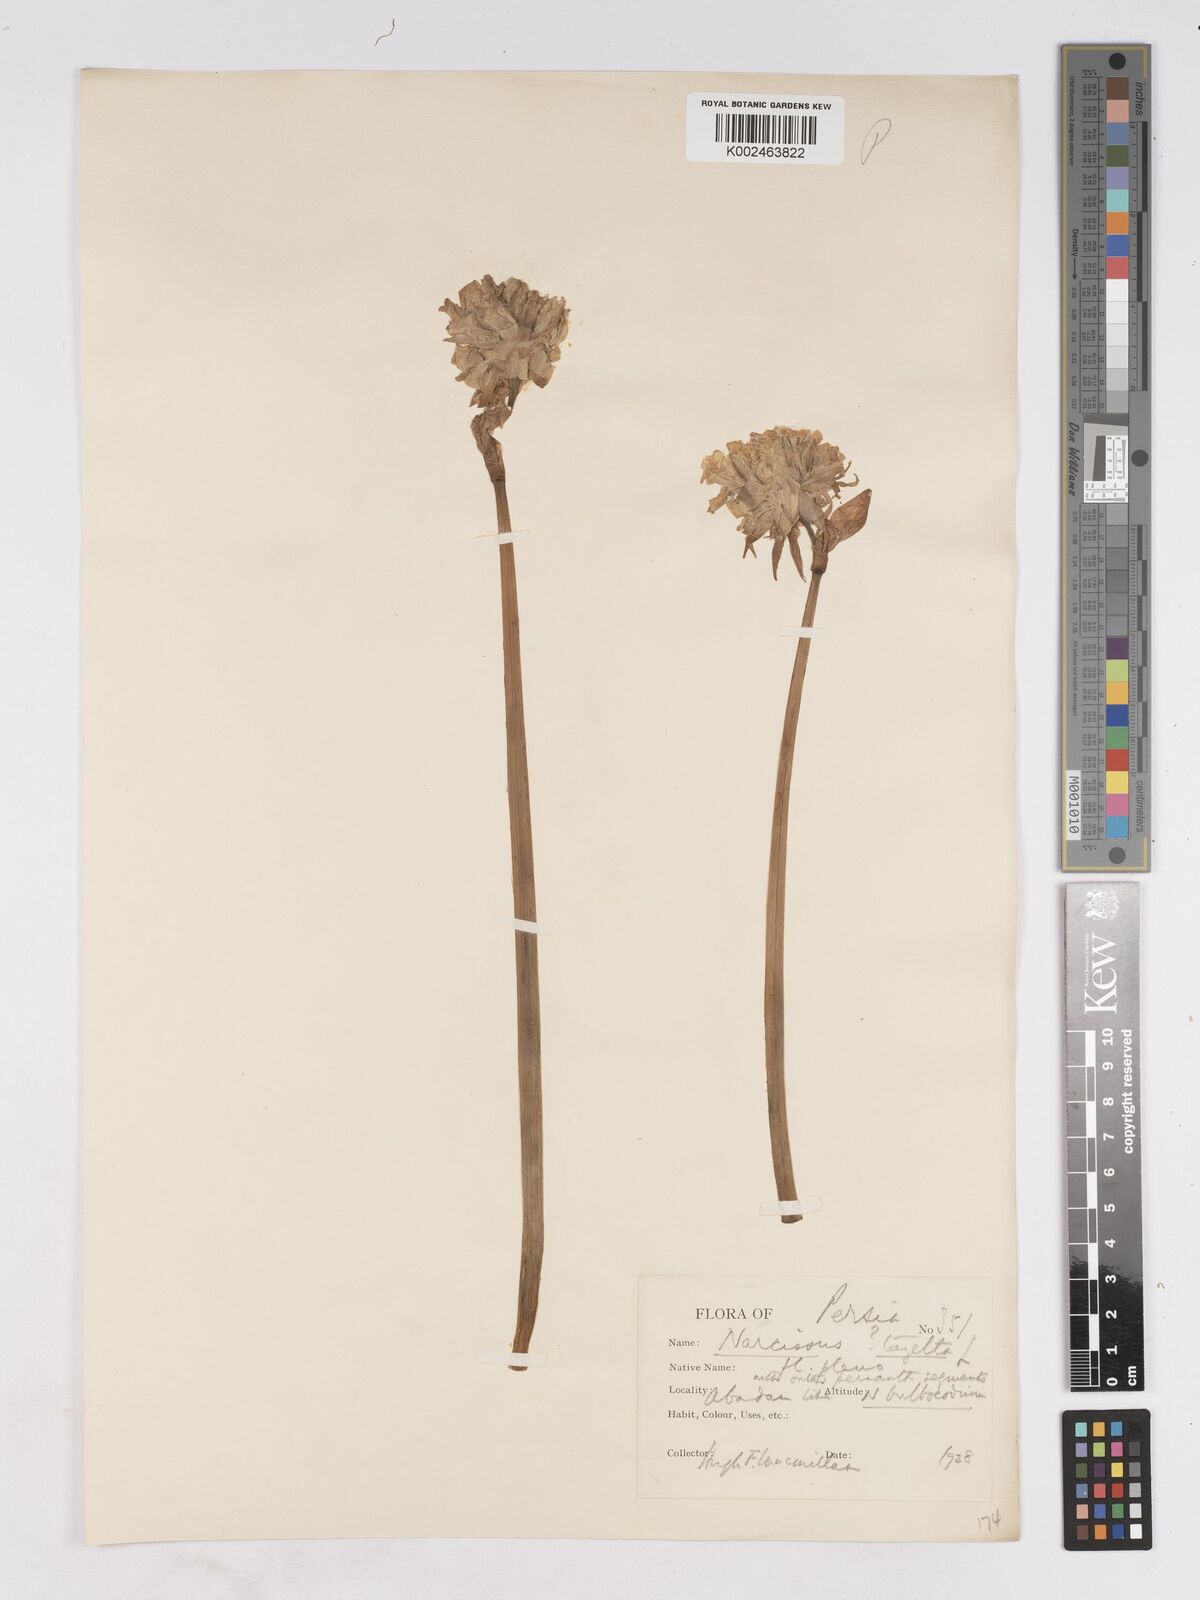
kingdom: Plantae
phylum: Tracheophyta
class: Liliopsida
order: Asparagales
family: Amaryllidaceae
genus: Narcissus
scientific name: Narcissus
